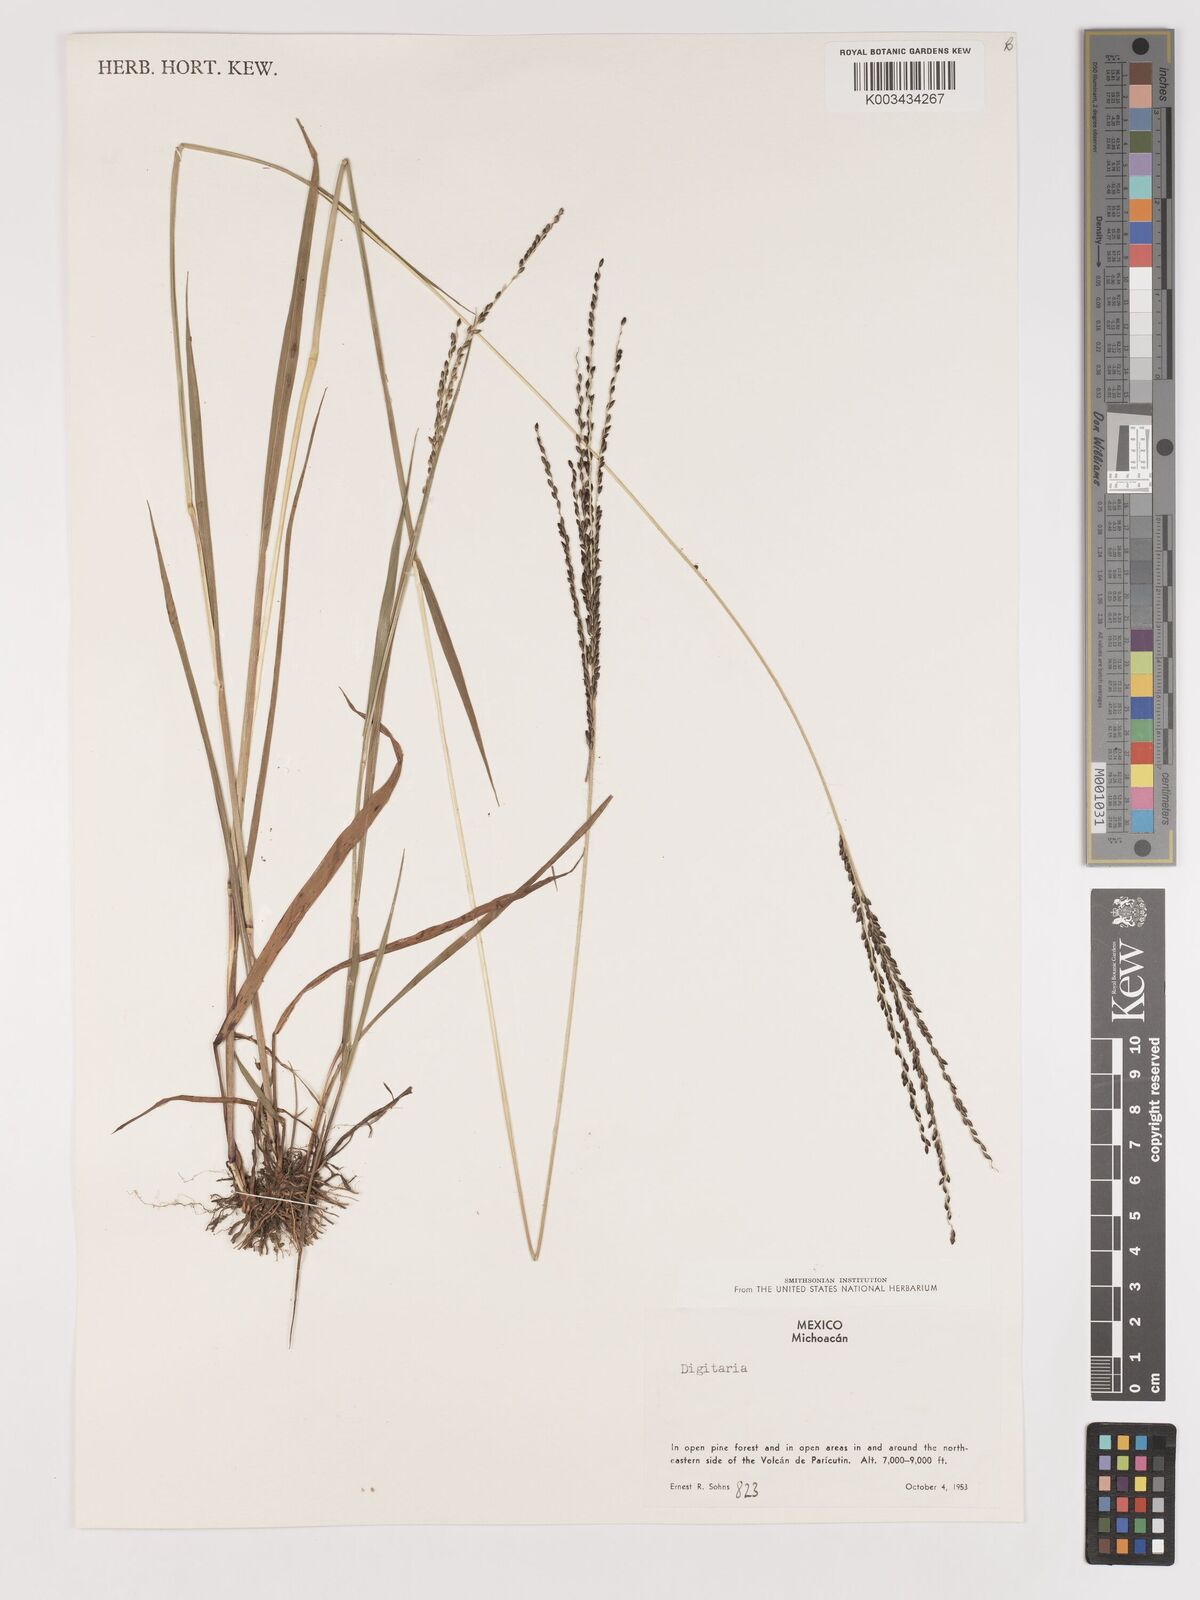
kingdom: Plantae
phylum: Tracheophyta
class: Liliopsida
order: Poales
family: Poaceae
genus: Digitaria
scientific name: Digitaria badia
